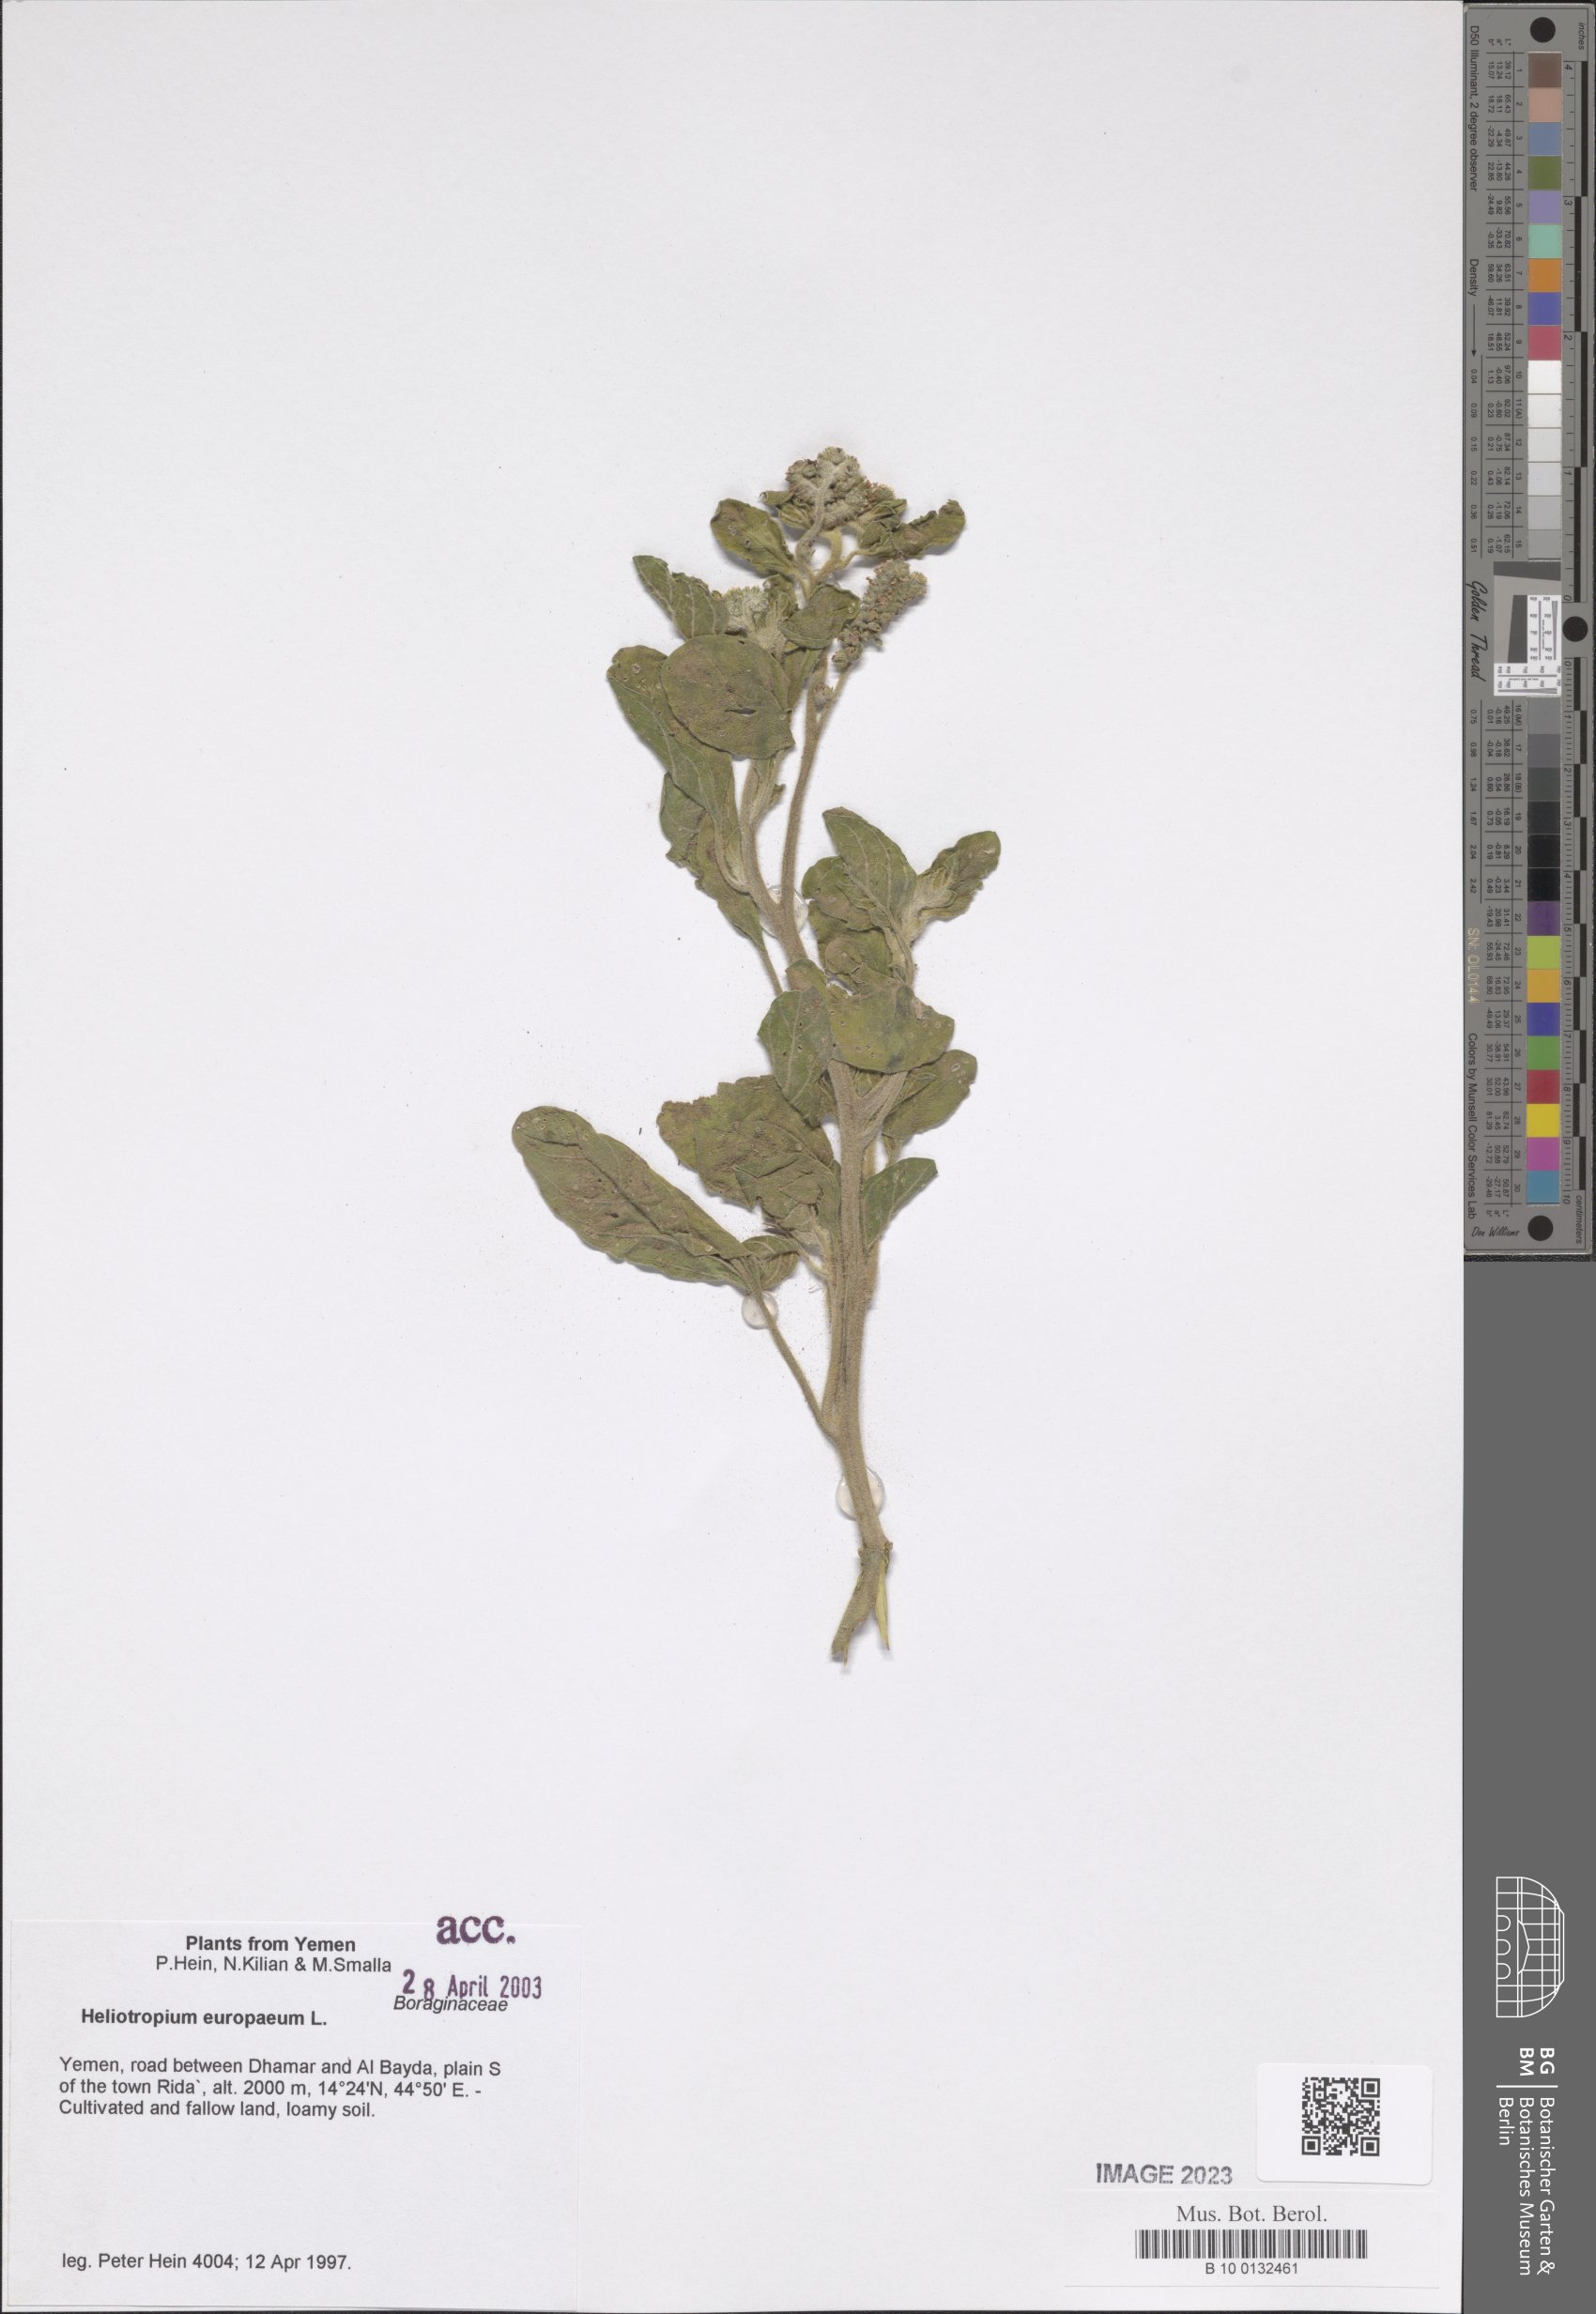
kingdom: Plantae
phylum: Tracheophyta
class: Magnoliopsida
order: Boraginales
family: Heliotropiaceae
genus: Heliotropium
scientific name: Heliotropium europaeum
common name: European heliotrope
